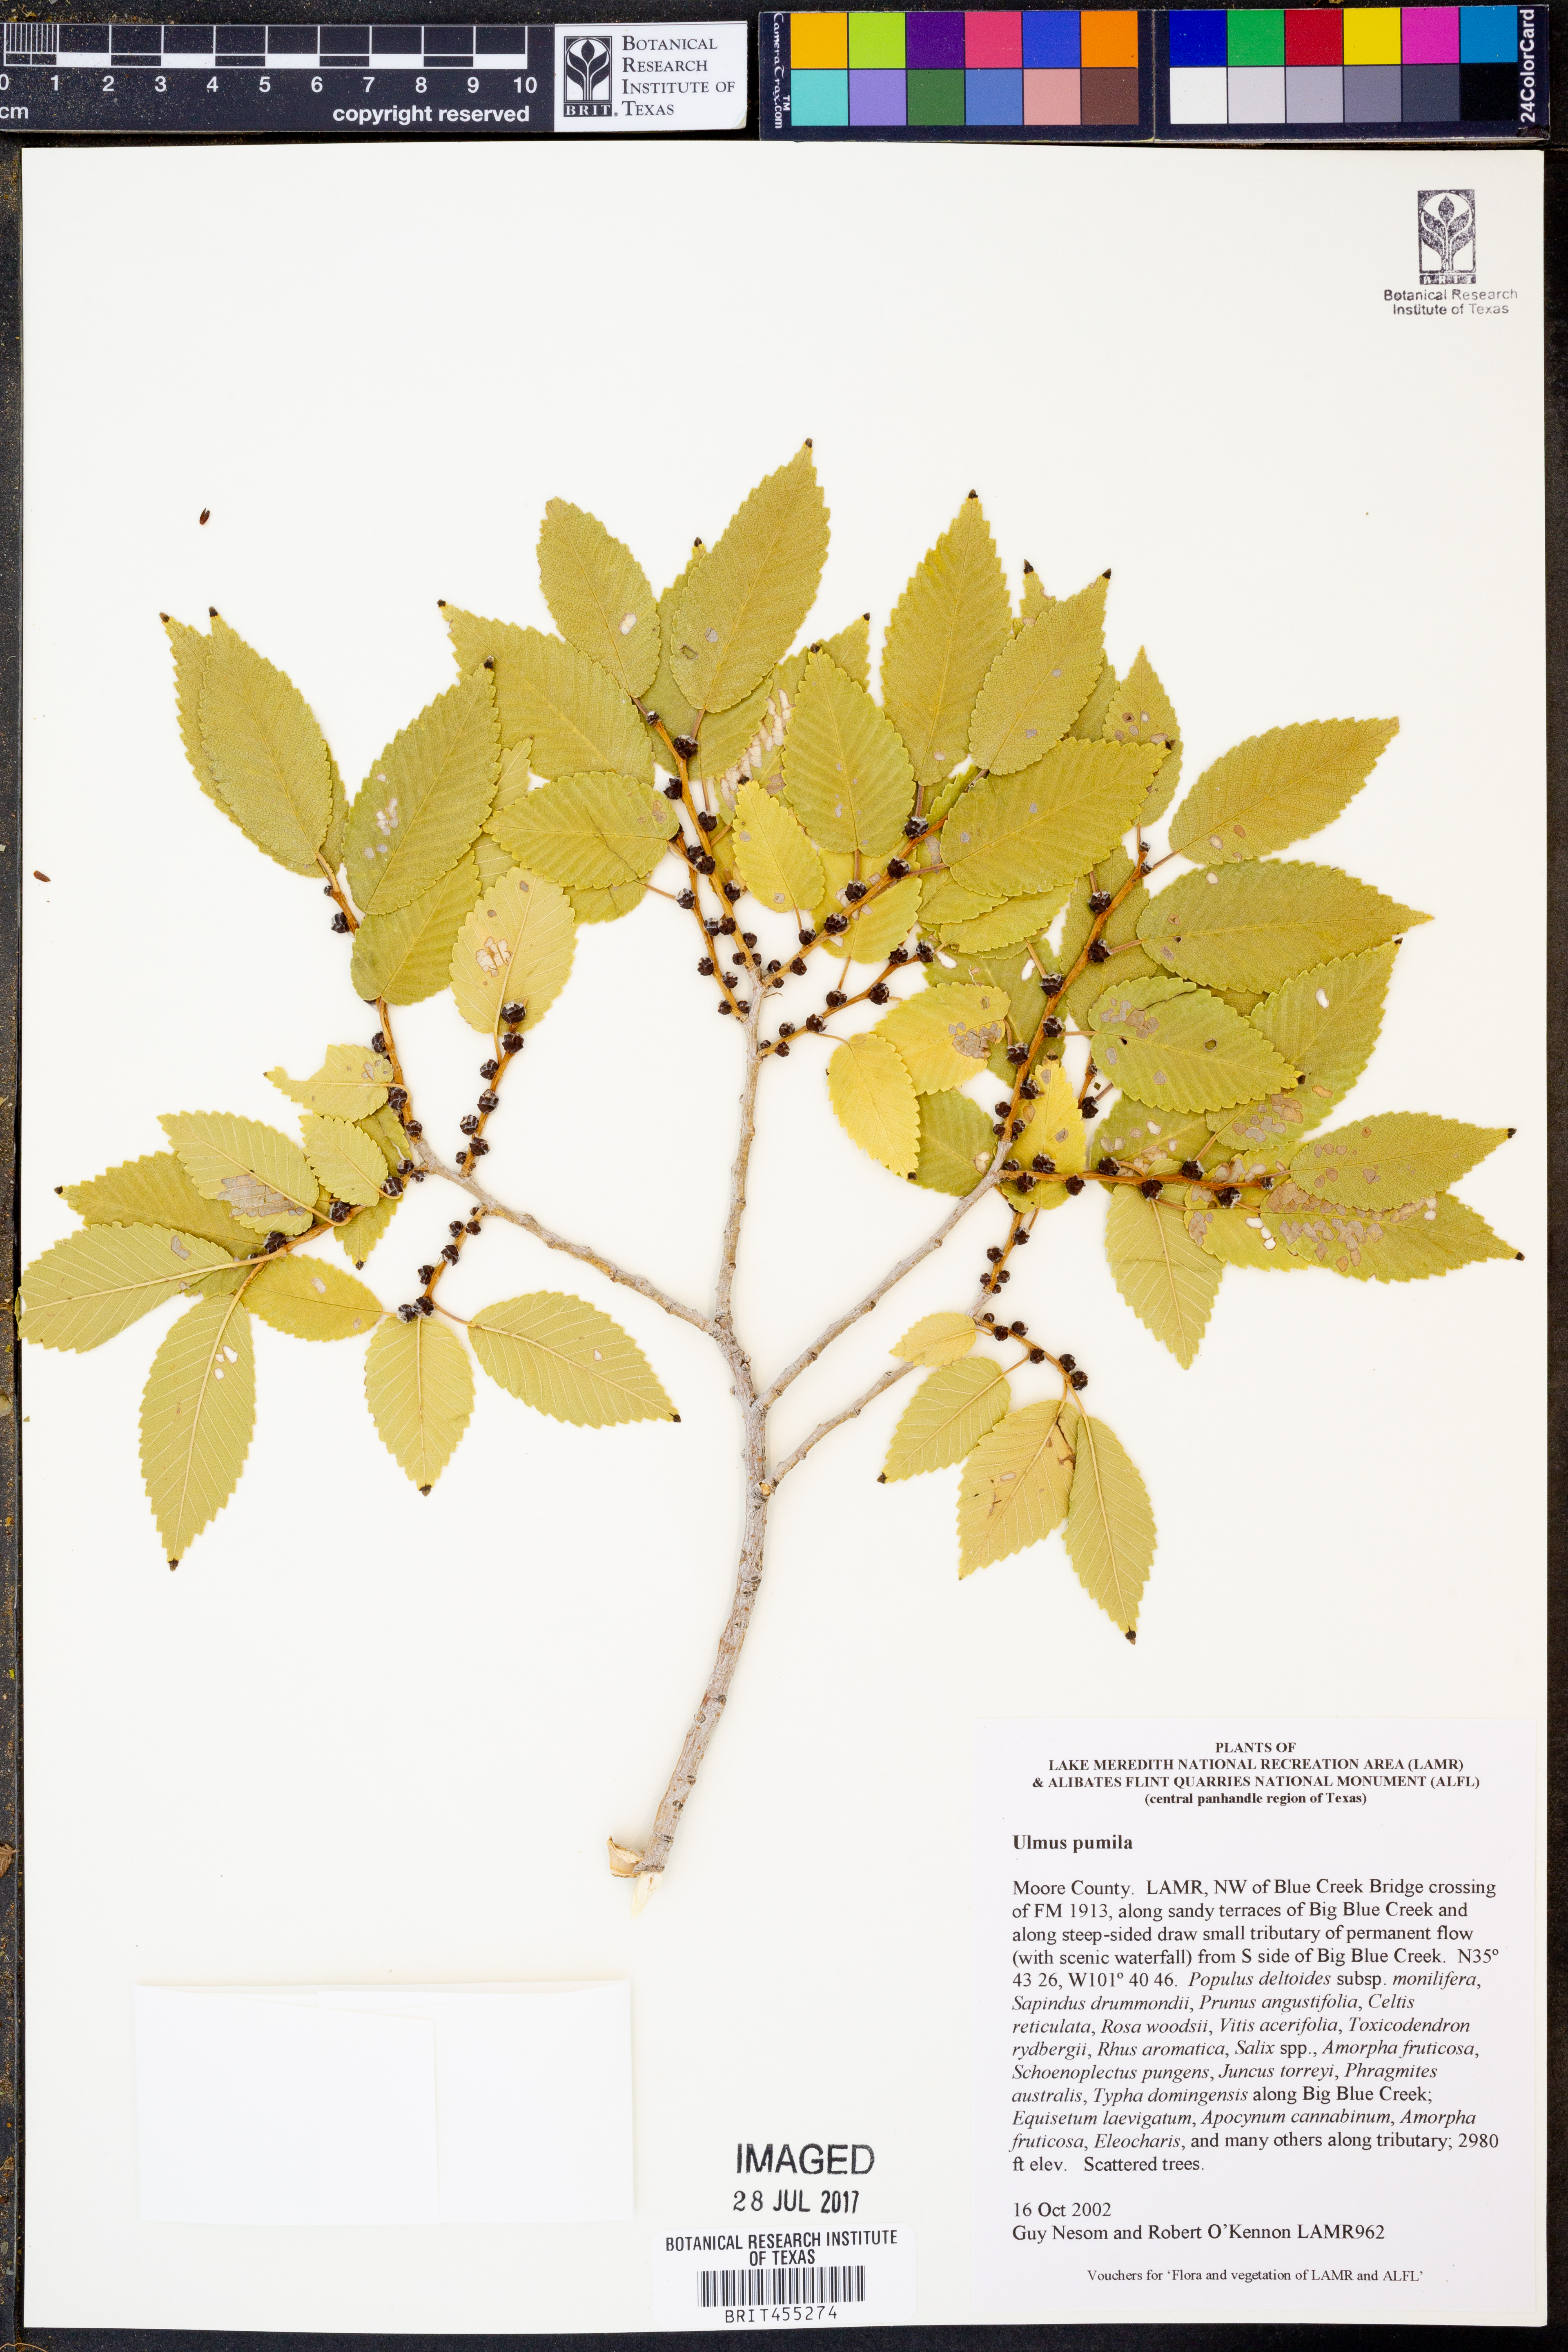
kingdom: Plantae
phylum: Tracheophyta
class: Magnoliopsida
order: Rosales
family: Ulmaceae
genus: Ulmus
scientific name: Ulmus pumila
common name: Siberian elm
